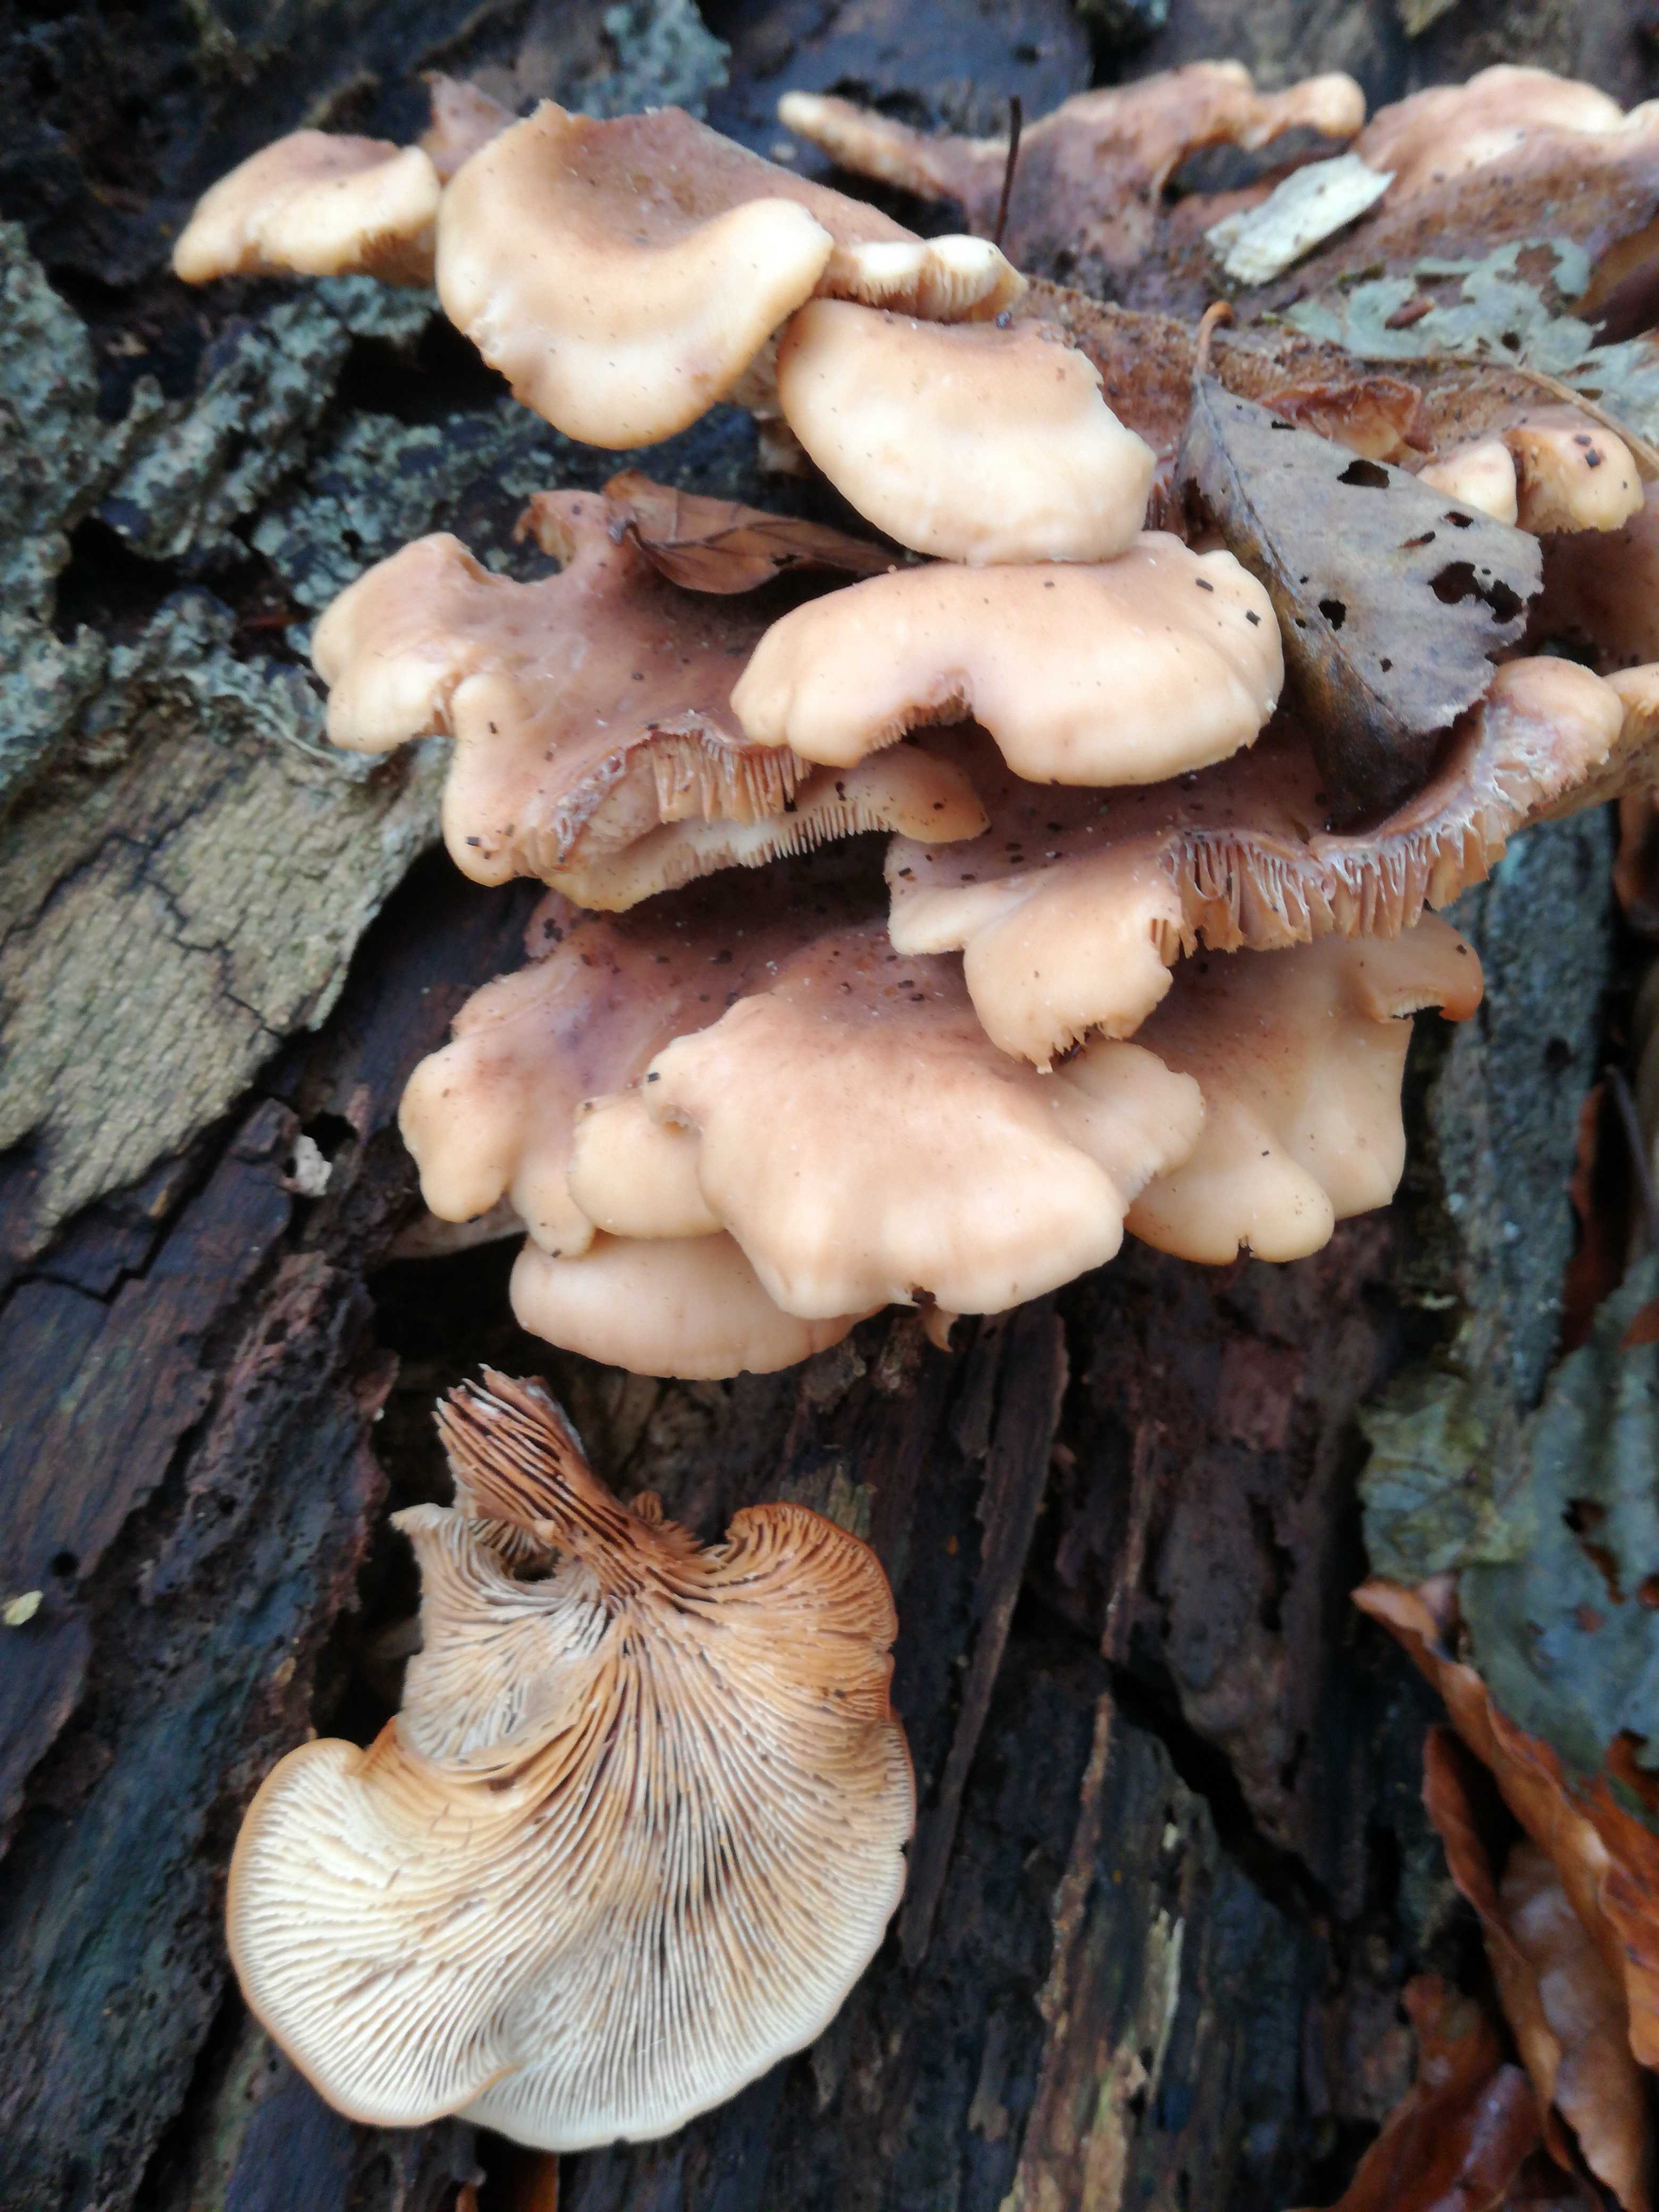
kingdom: Fungi
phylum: Basidiomycota
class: Agaricomycetes
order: Russulales
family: Auriscalpiaceae
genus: Lentinellus
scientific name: Lentinellus ursinus
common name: børstehåret savbladhat
